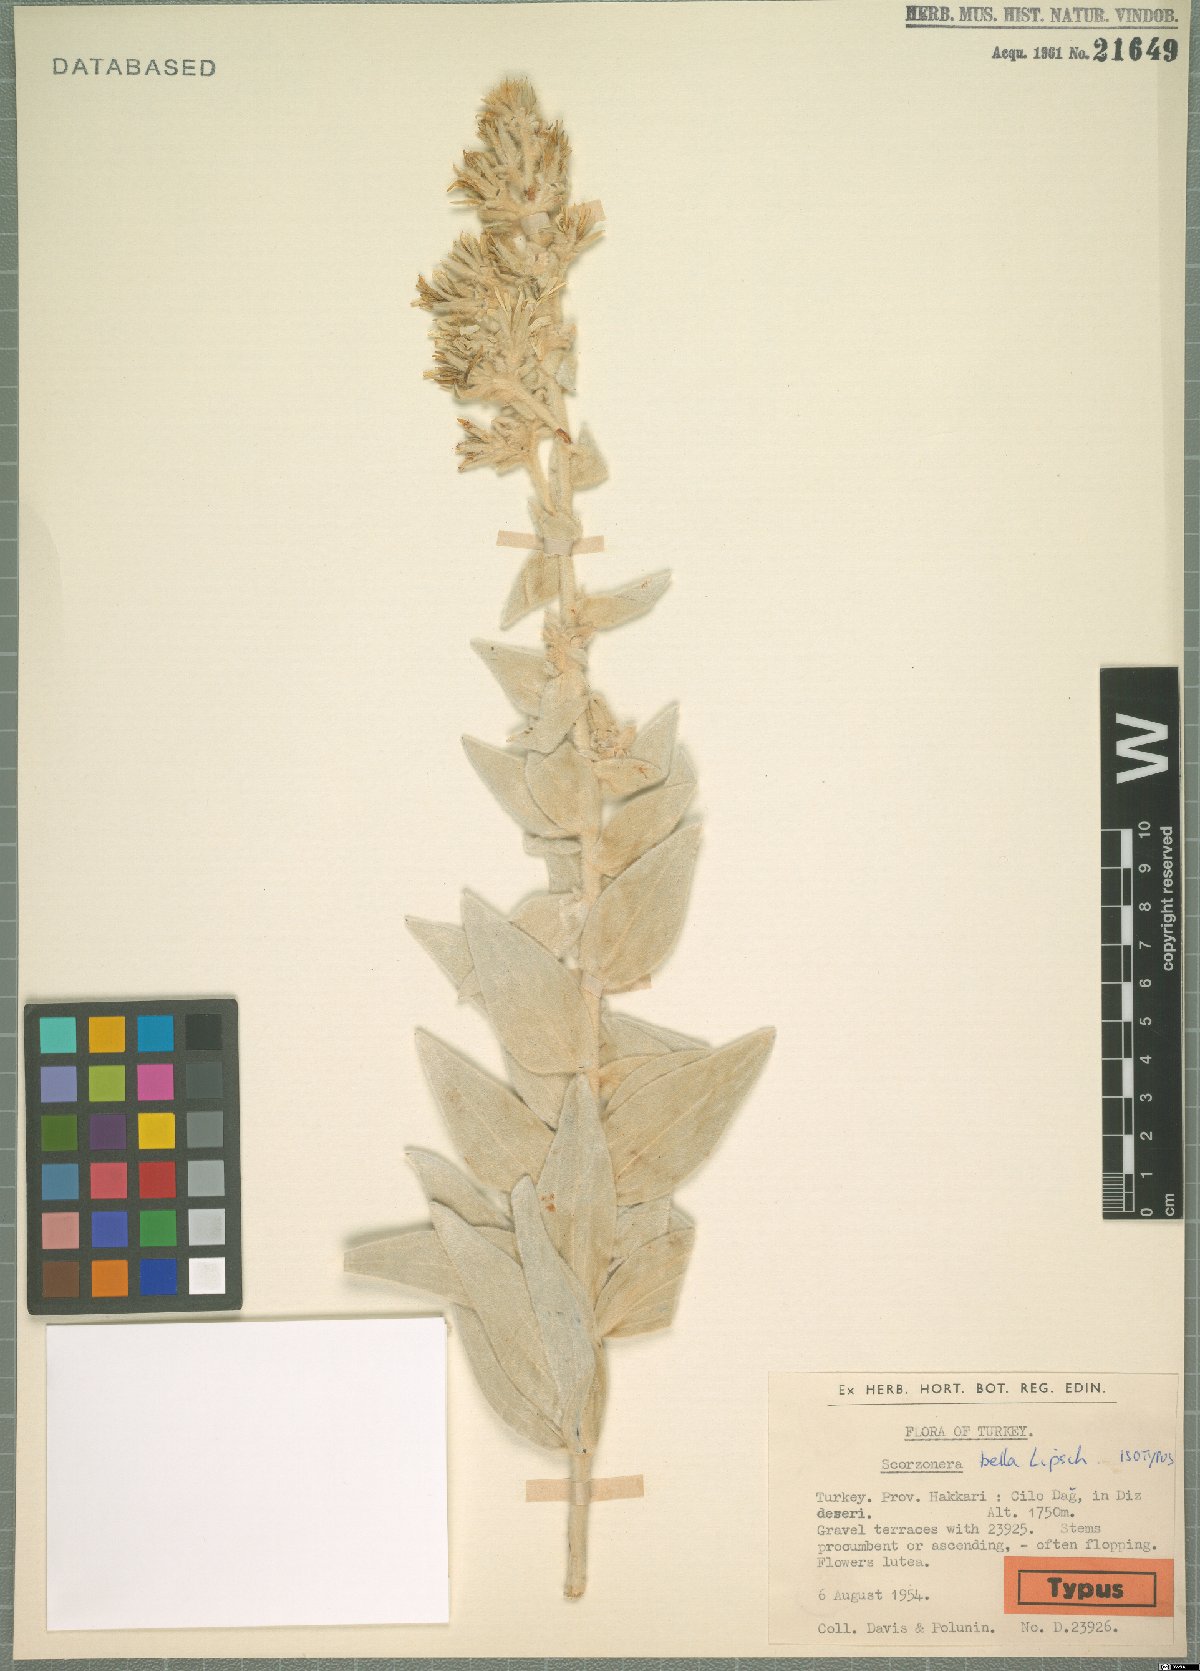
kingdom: Plantae
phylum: Tracheophyta
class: Magnoliopsida
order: Asterales
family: Asteraceae
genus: Guneria
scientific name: Guneria veratrifolia
